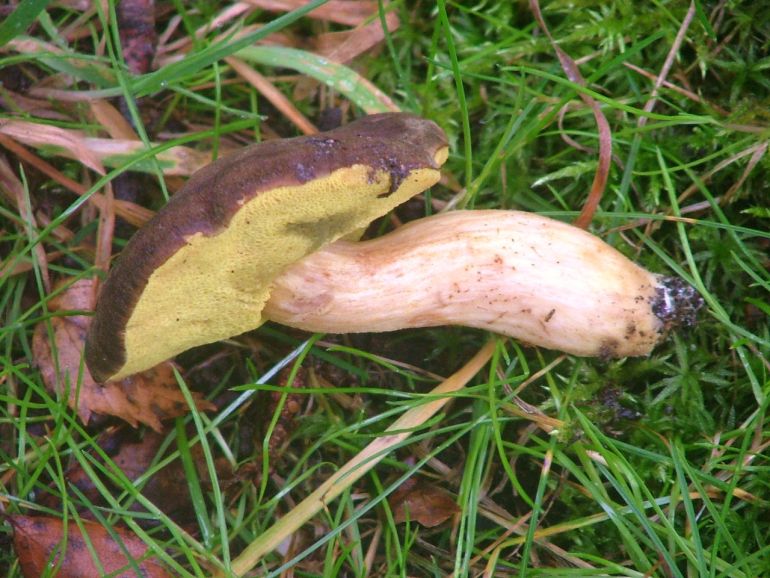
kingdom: Fungi
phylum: Basidiomycota
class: Agaricomycetes
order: Boletales
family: Boletaceae
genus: Xerocomellus
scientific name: Xerocomellus pruinatus
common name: dugget rørhat
